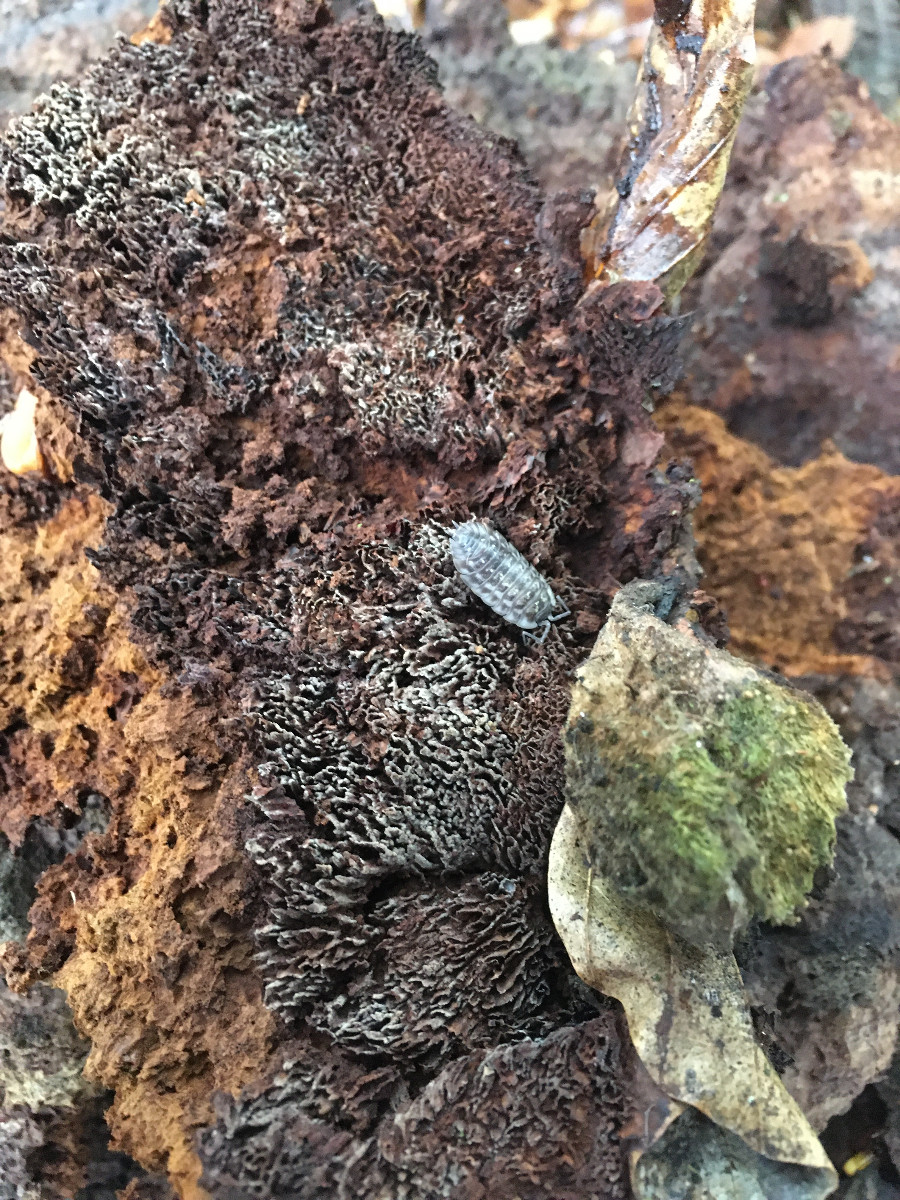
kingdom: Fungi
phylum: Basidiomycota
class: Agaricomycetes
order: Polyporales
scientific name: Polyporales
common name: poresvampordenen
